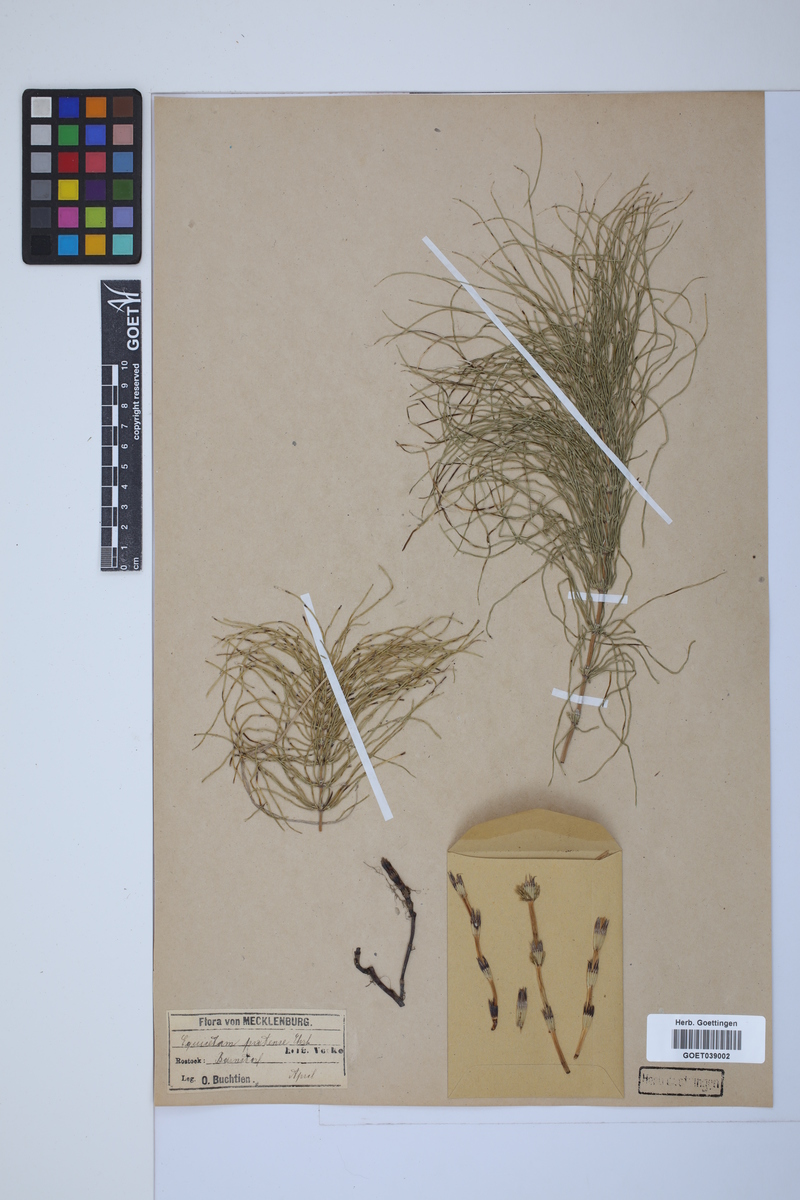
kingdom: Plantae
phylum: Tracheophyta
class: Polypodiopsida
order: Equisetales
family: Equisetaceae
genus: Equisetum
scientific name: Equisetum pratense
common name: Meadow horsetail
